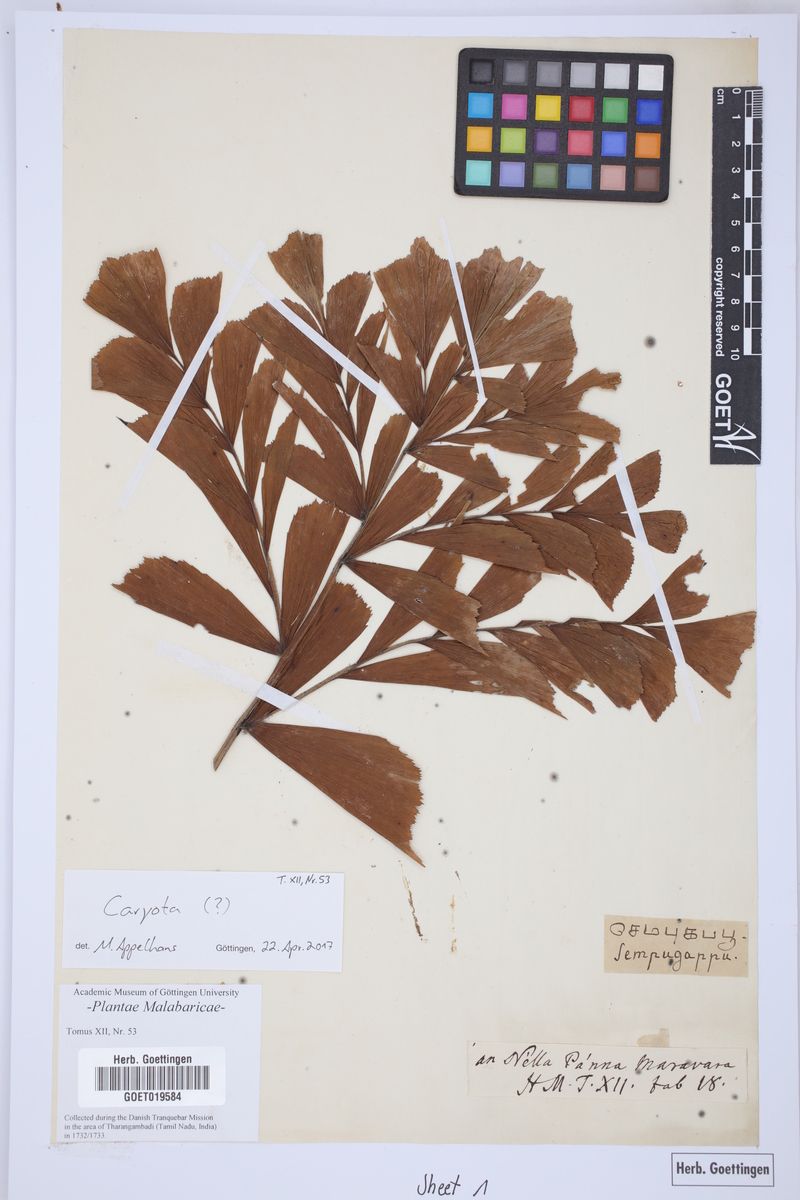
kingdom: Plantae
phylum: Tracheophyta
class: Liliopsida
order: Arecales
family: Arecaceae
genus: Caryota
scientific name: Caryota
